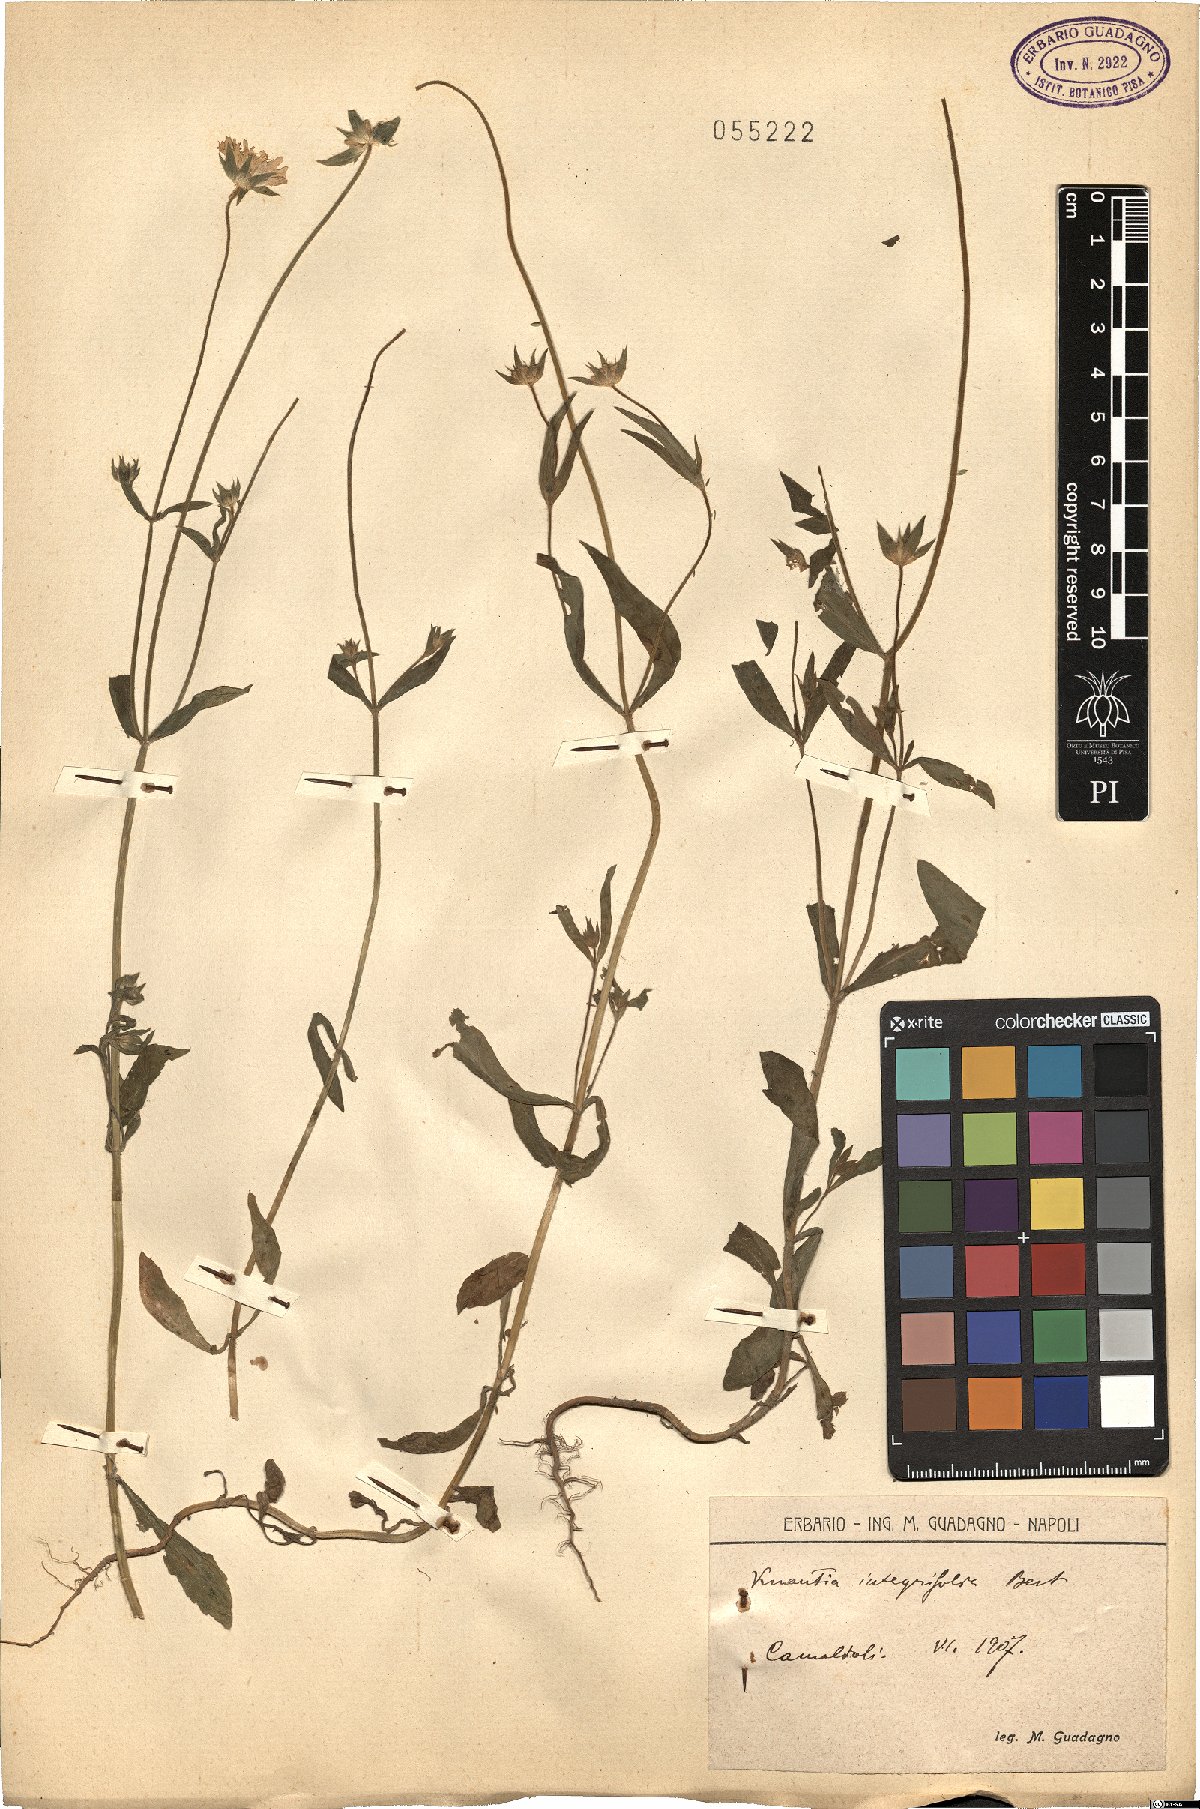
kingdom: Plantae
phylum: Tracheophyta
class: Magnoliopsida
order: Dipsacales
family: Caprifoliaceae
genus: Knautia
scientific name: Knautia integrifolia
